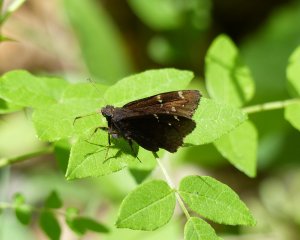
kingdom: Animalia
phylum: Arthropoda
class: Insecta
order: Lepidoptera
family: Hesperiidae
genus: Autochton
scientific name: Autochton
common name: Northern Cloudywing
